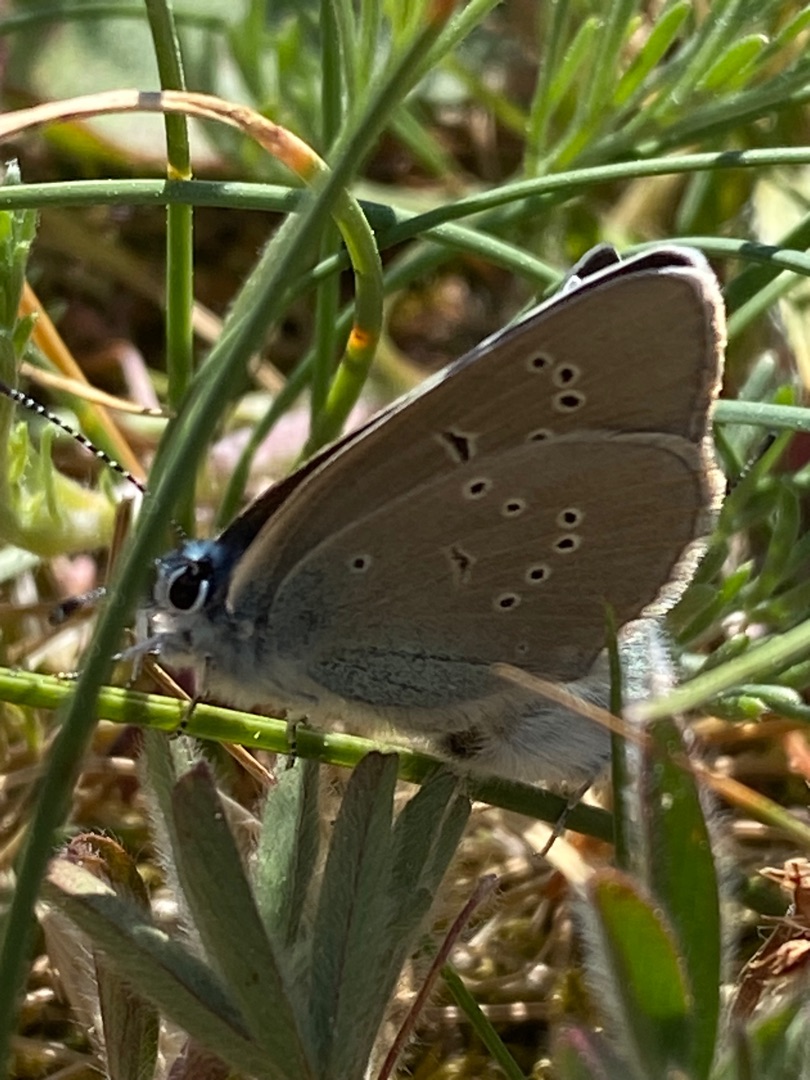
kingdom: Animalia
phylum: Arthropoda
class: Insecta
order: Lepidoptera
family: Lycaenidae
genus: Cyaniris
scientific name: Cyaniris semiargus
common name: Engblåfugl
